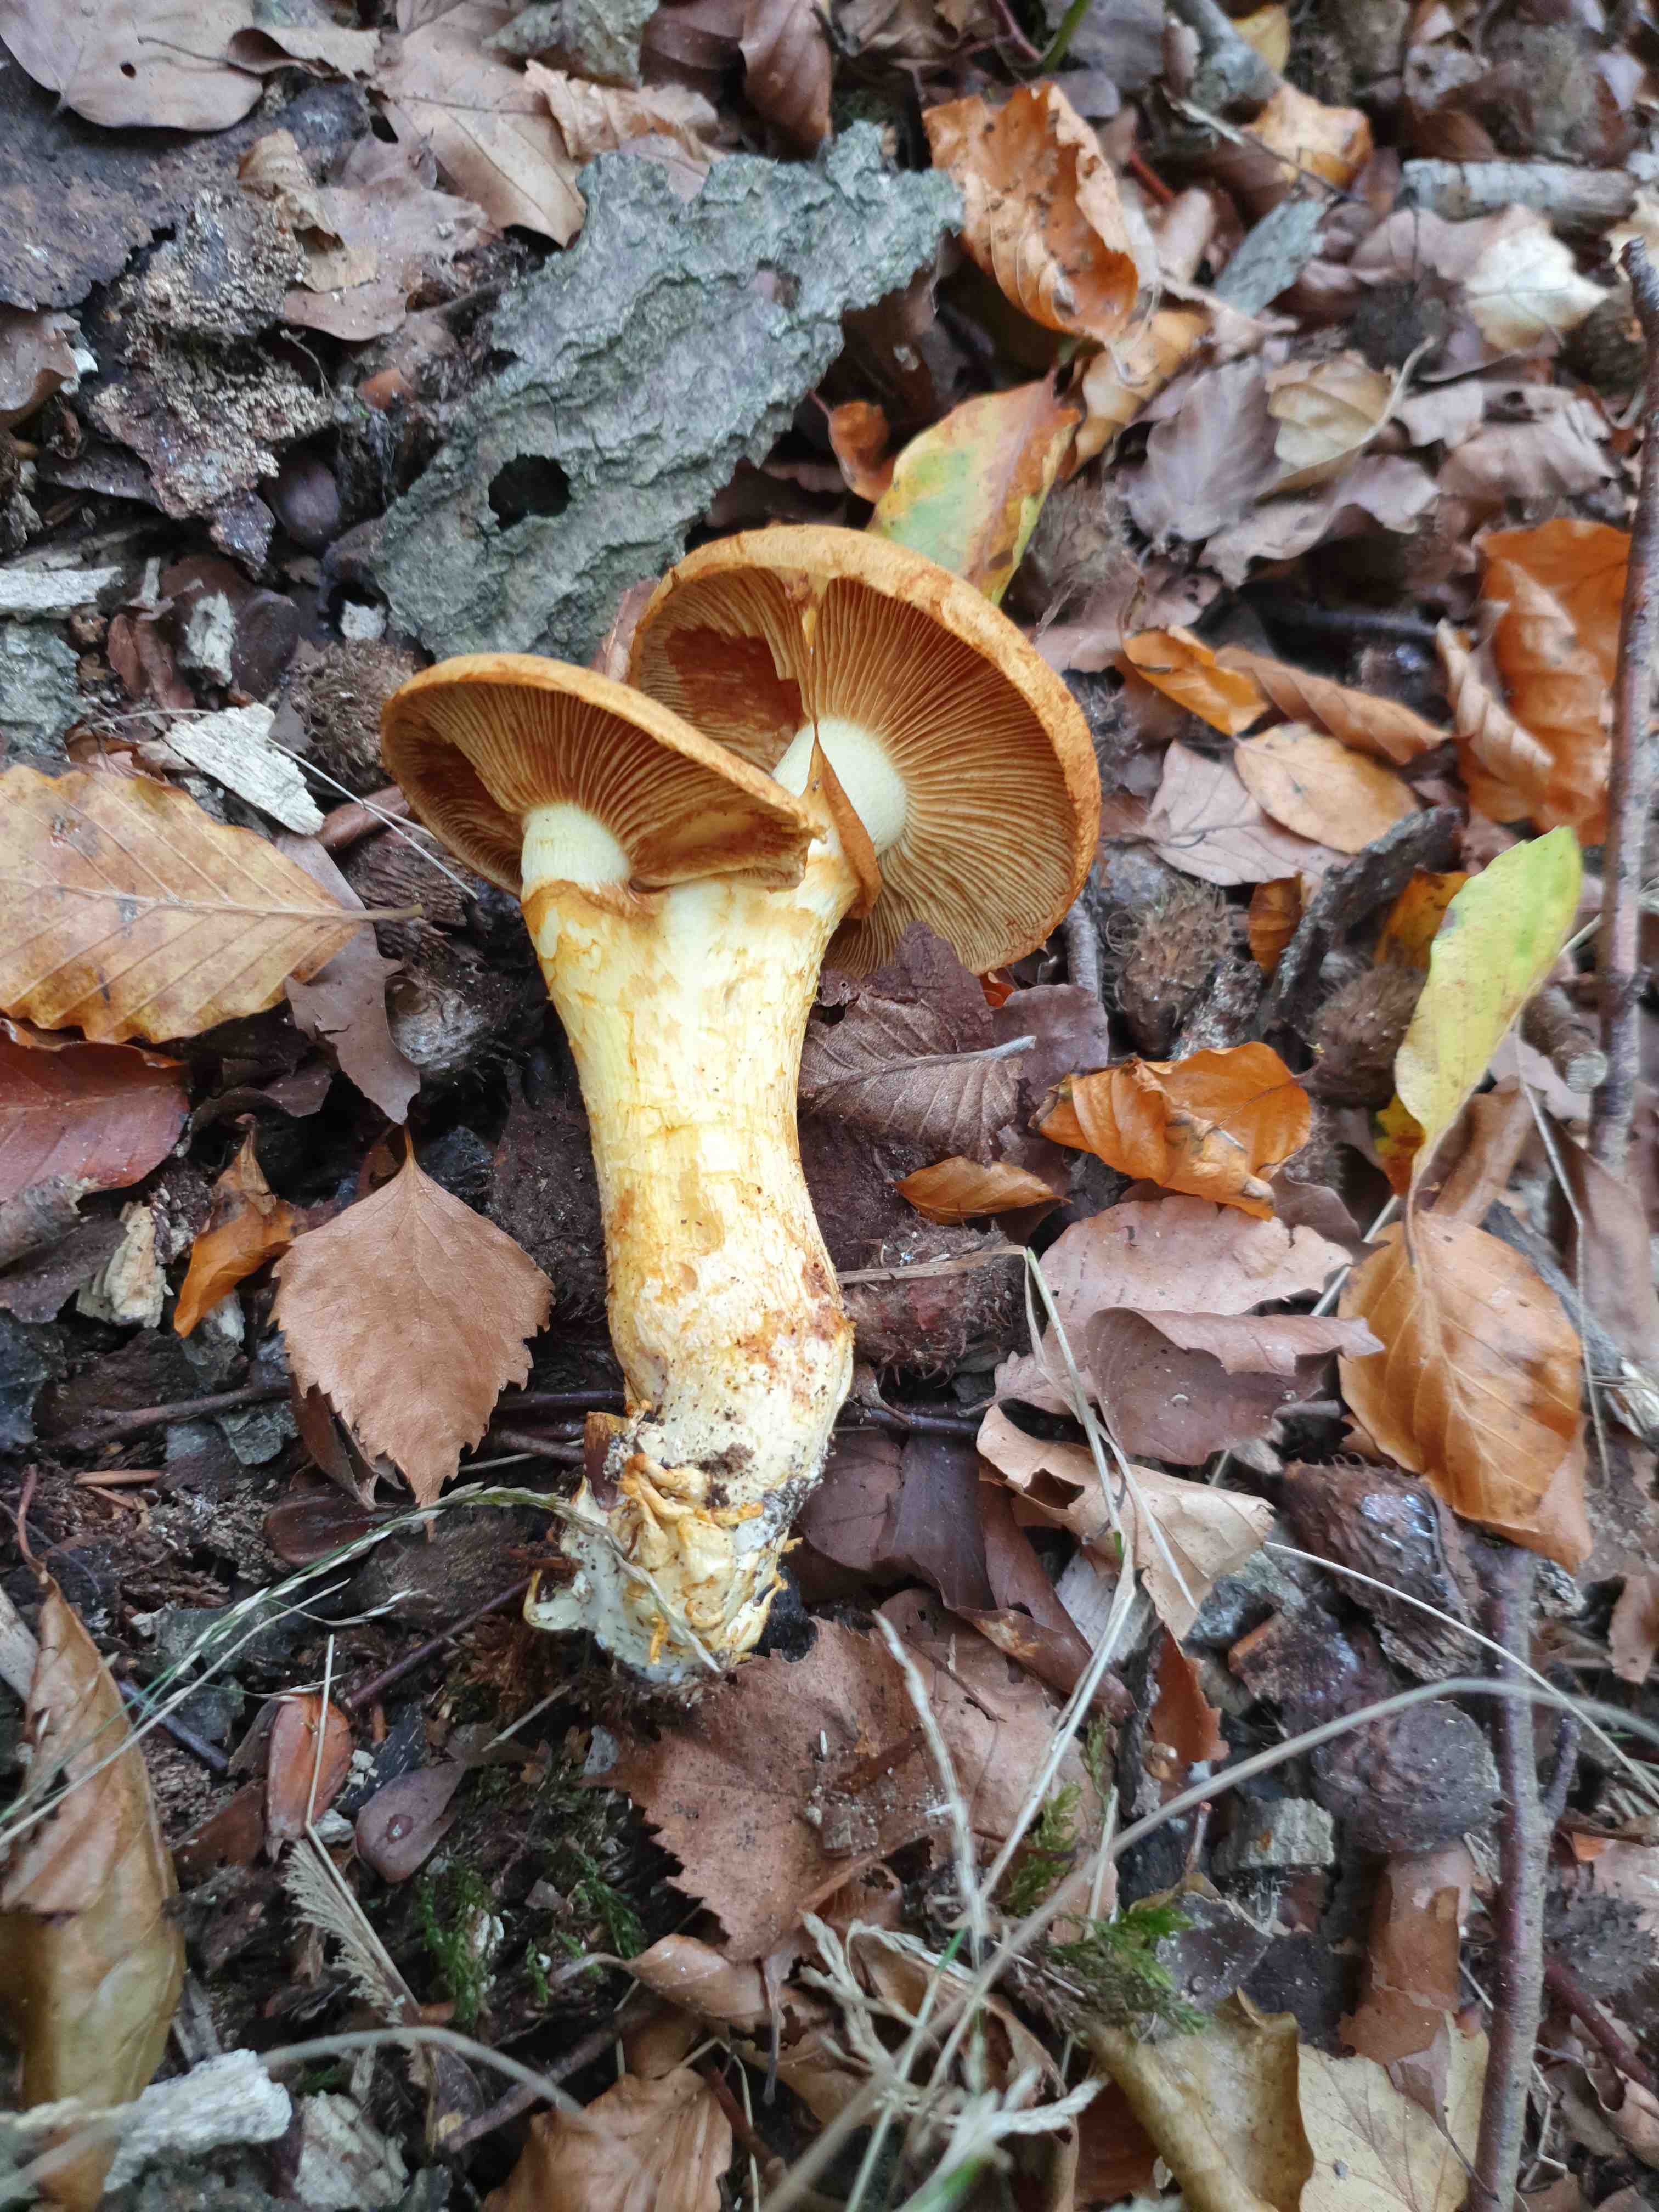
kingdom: Fungi
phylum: Basidiomycota
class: Agaricomycetes
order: Agaricales
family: Hymenogastraceae
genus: Gymnopilus
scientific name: Gymnopilus spectabilis
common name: fibret flammehat
